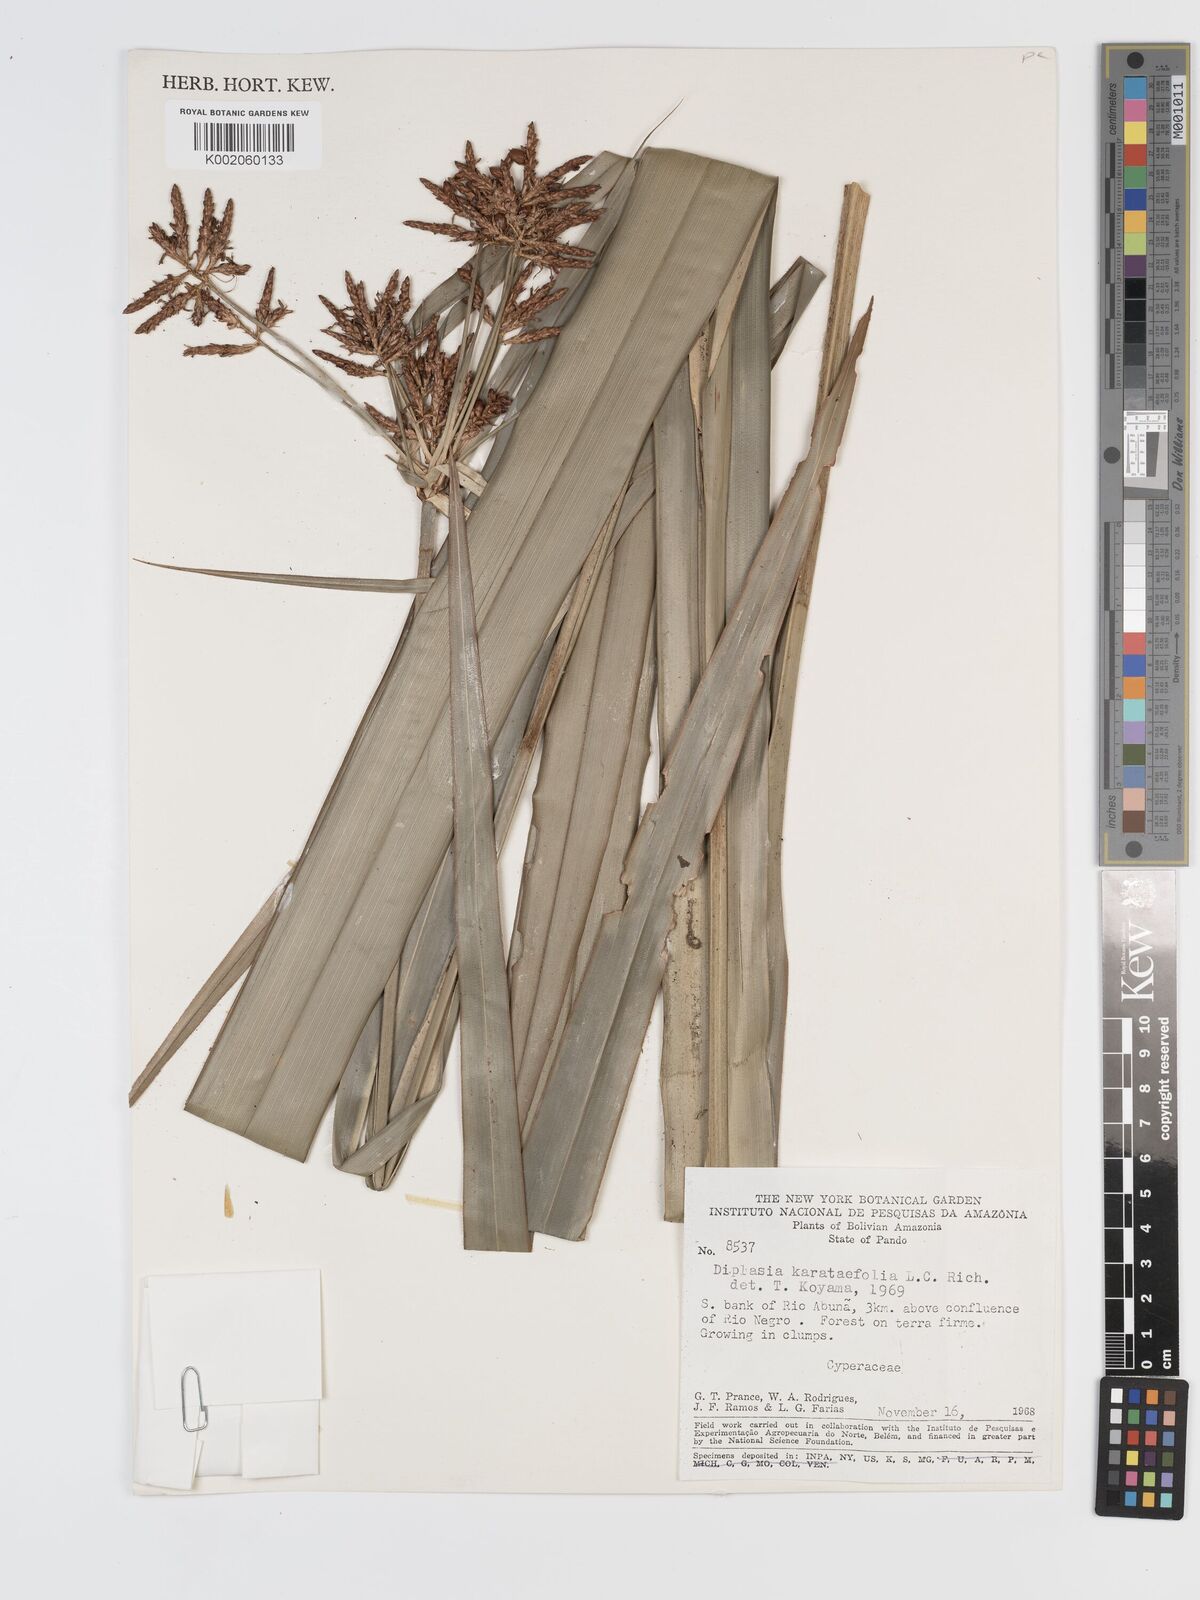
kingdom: Plantae
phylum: Tracheophyta
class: Liliopsida
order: Poales
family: Cyperaceae
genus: Diplasia
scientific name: Diplasia karatifolia
